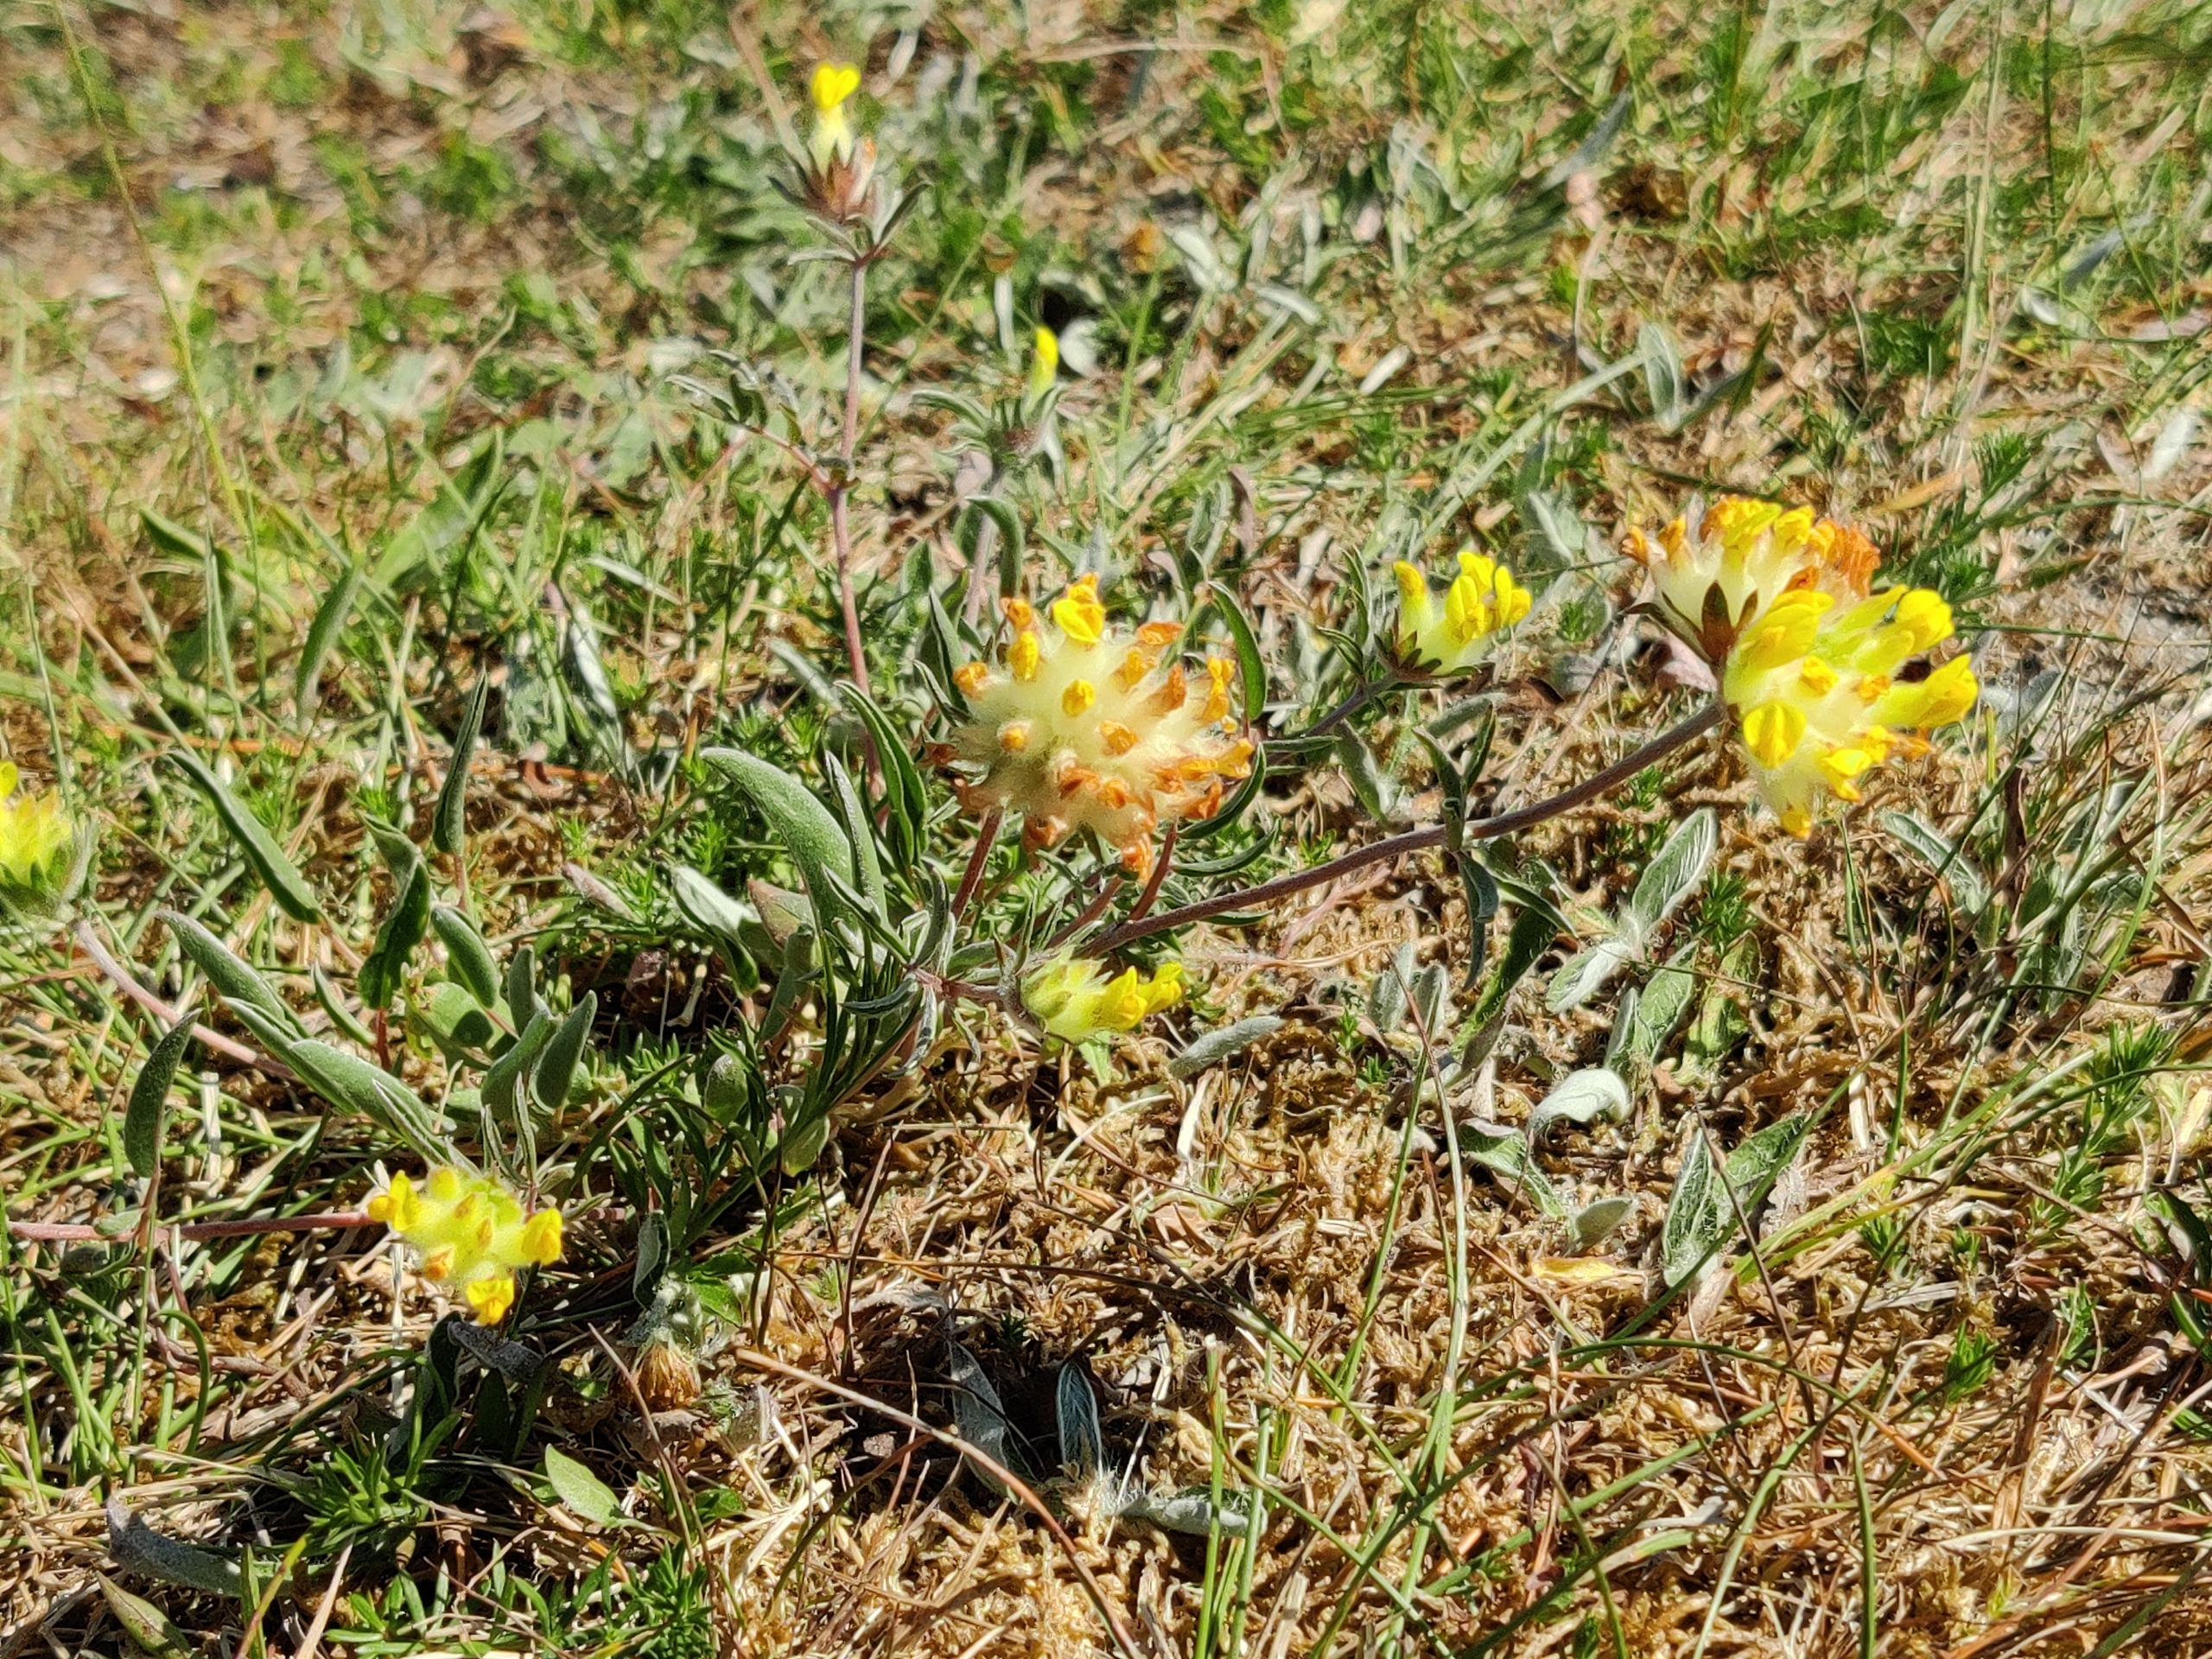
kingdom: Plantae
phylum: Tracheophyta
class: Magnoliopsida
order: Fabales
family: Fabaceae
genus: Anthyllis
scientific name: Anthyllis vulneraria
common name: Rundbælg
